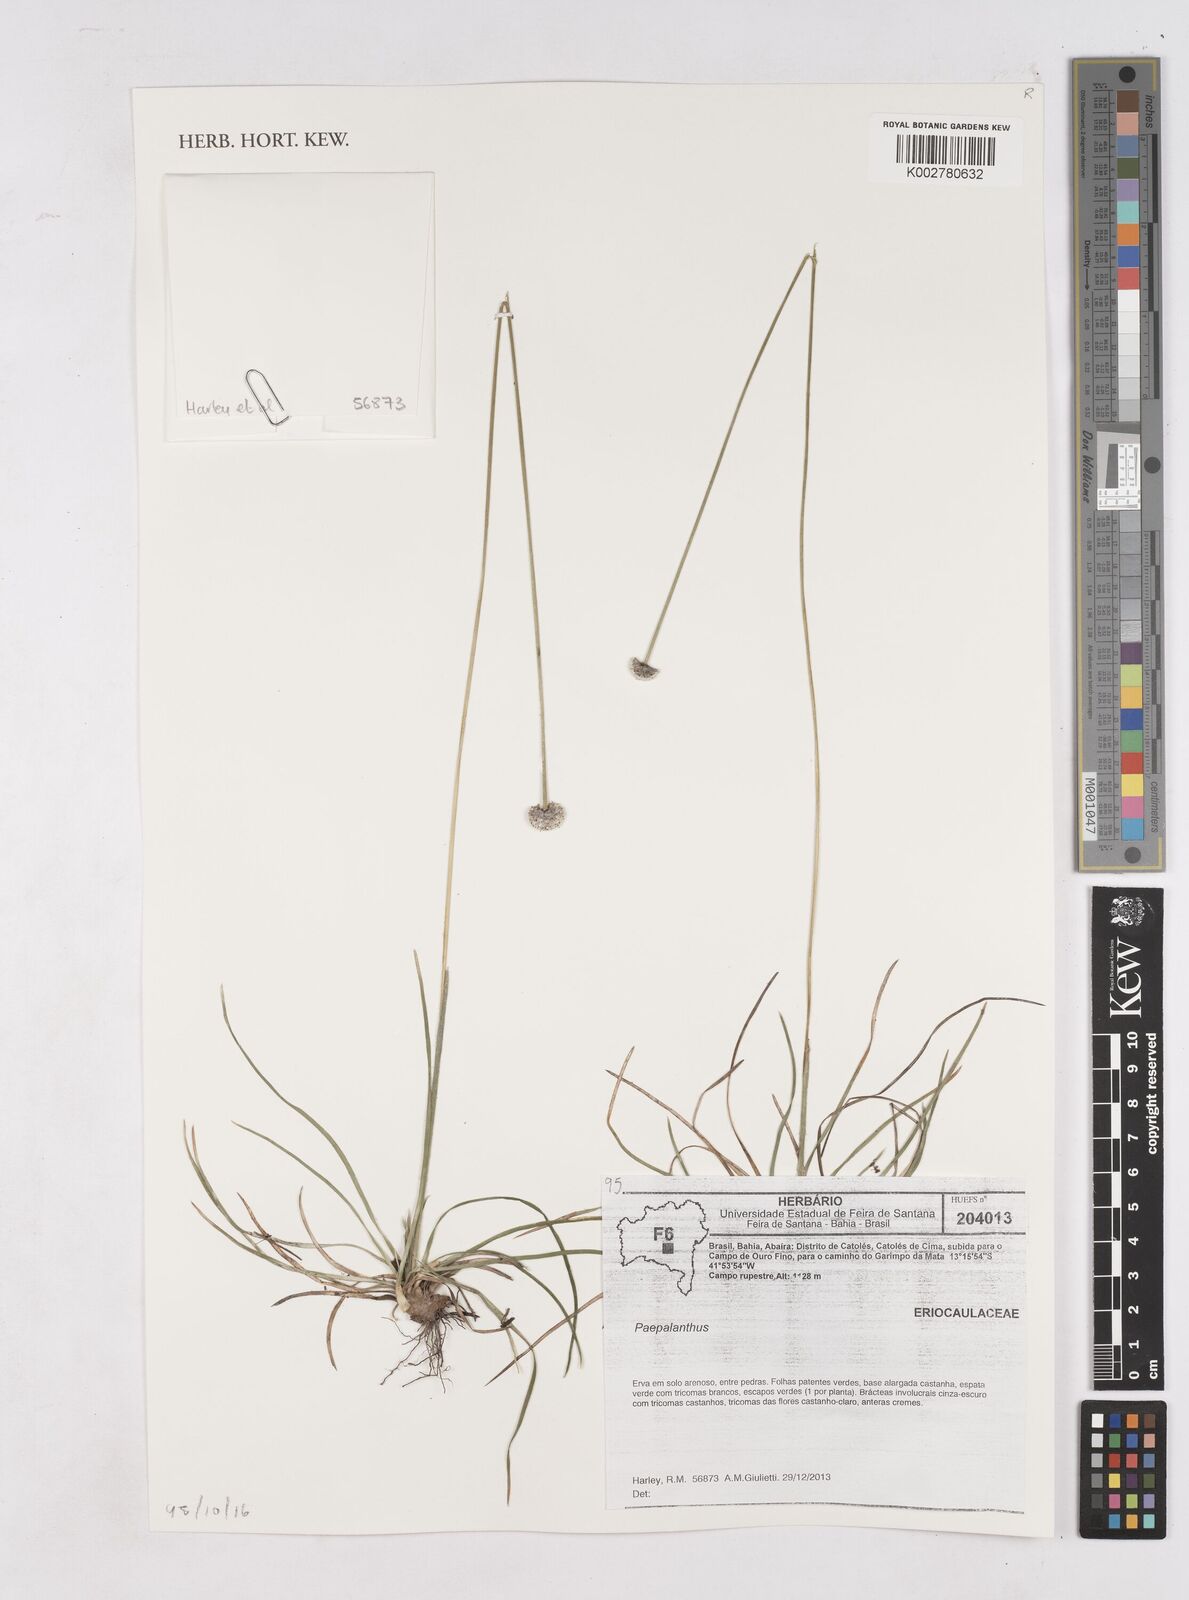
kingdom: Plantae
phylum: Tracheophyta
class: Liliopsida
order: Poales
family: Eriocaulaceae
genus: Paepalanthus
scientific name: Paepalanthus
